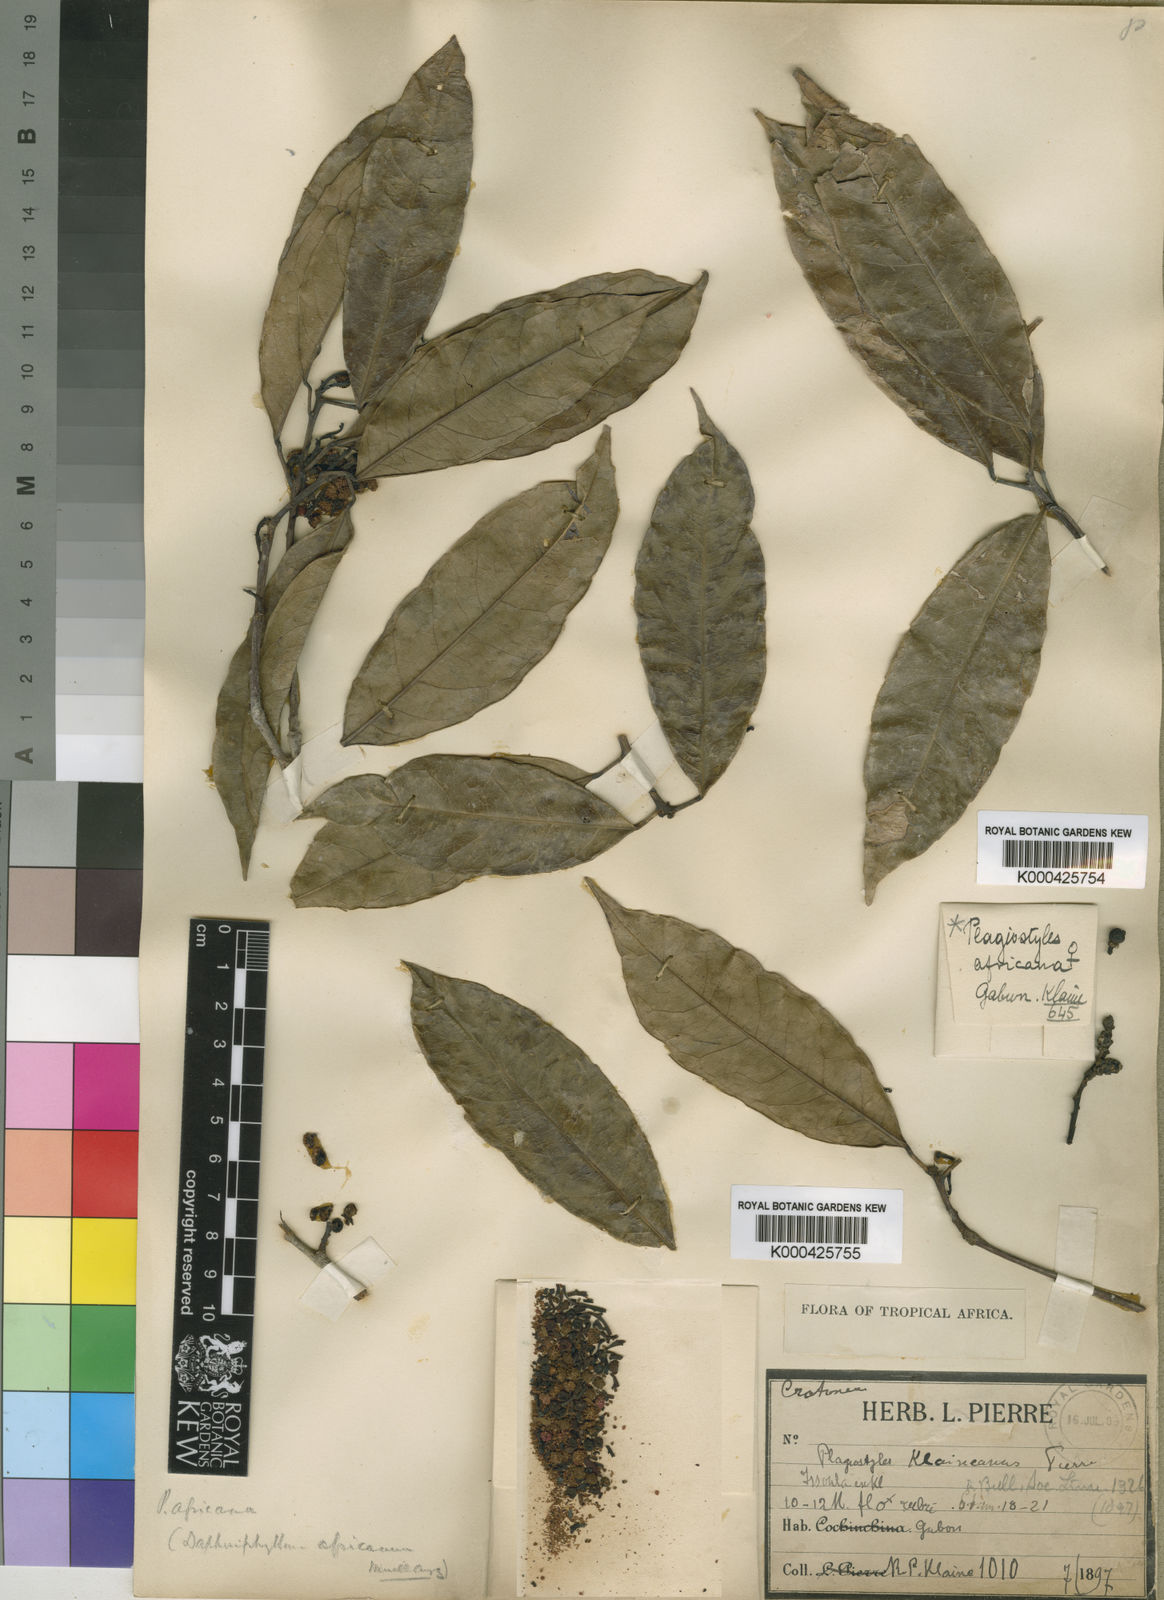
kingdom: Plantae
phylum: Tracheophyta
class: Magnoliopsida
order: Malpighiales
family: Euphorbiaceae
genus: Plagiostyles
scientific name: Plagiostyles
